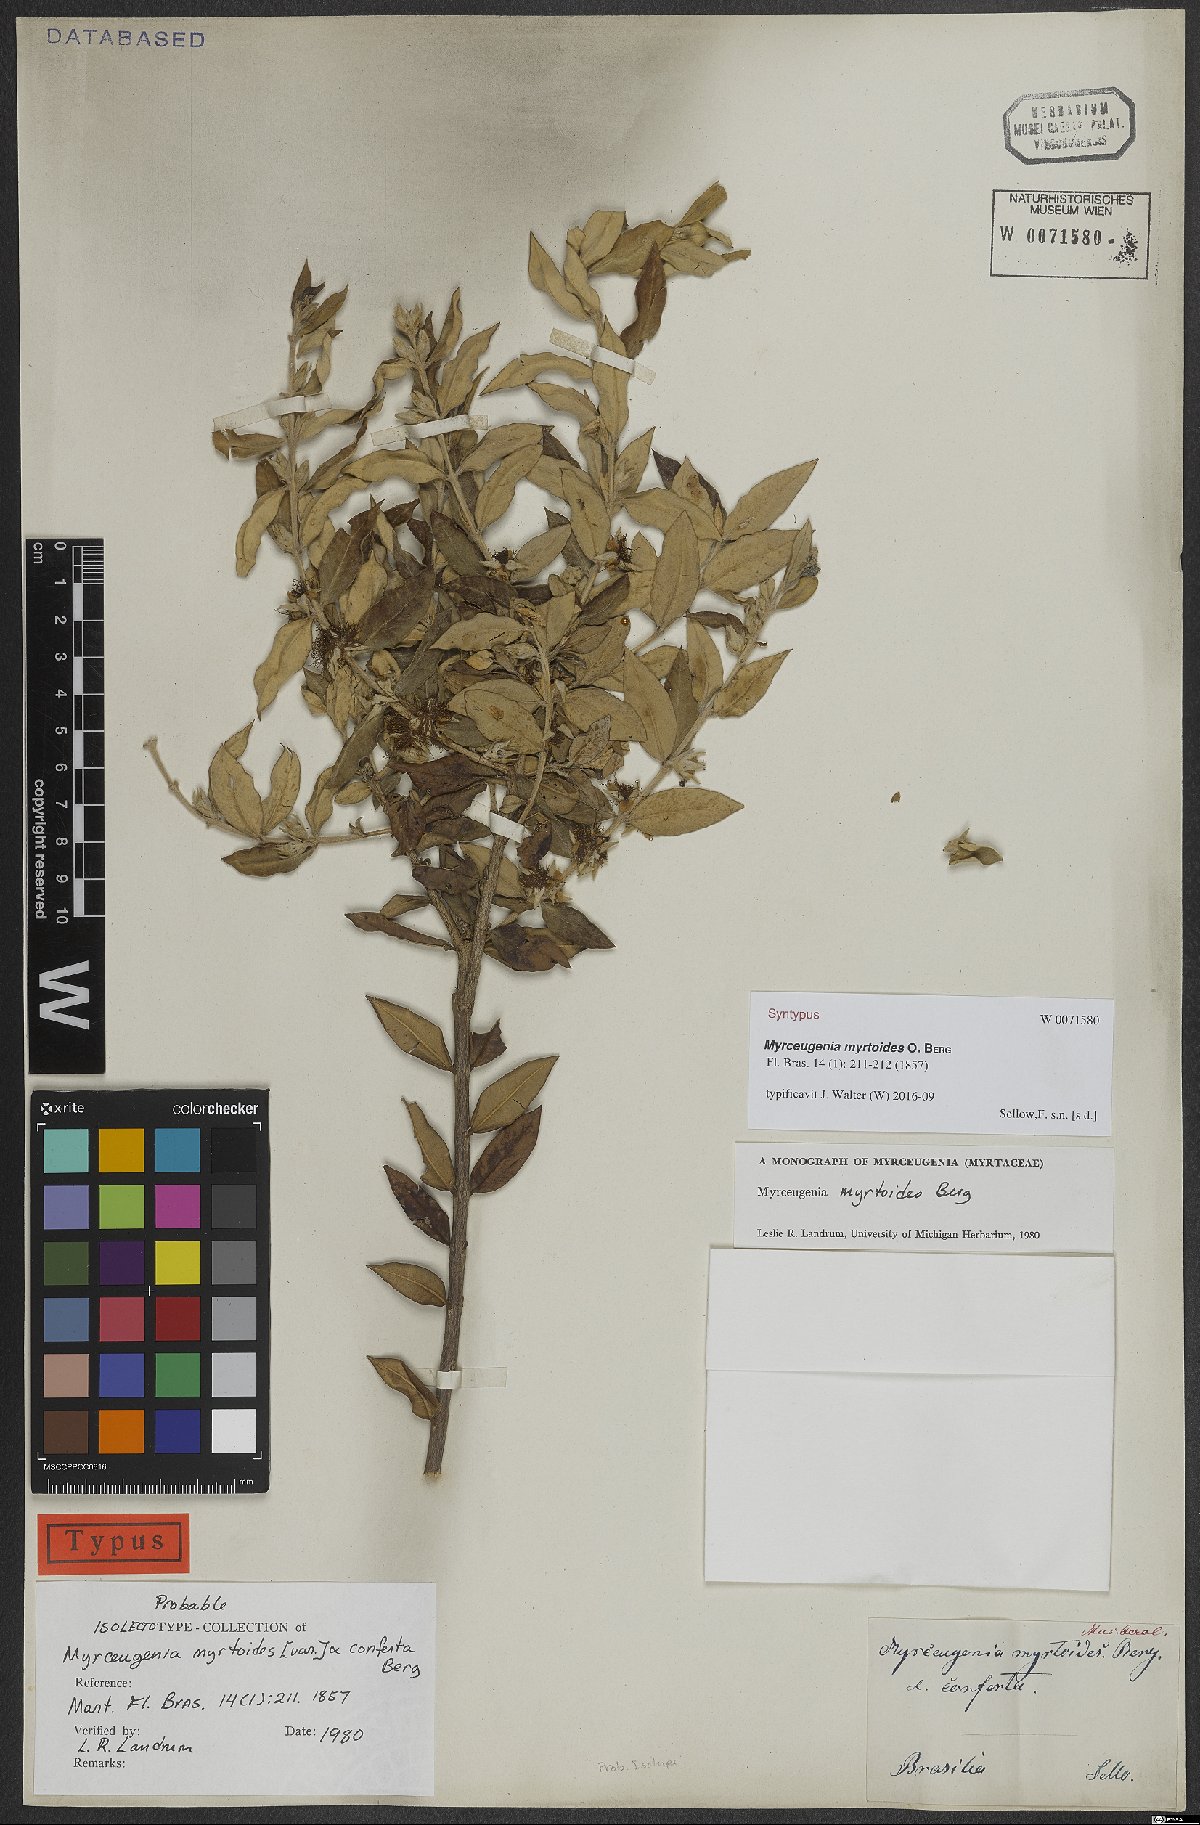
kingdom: Plantae
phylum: Tracheophyta
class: Magnoliopsida
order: Myrtales
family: Myrtaceae
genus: Myrceugenia
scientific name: Myrceugenia myrtoides
